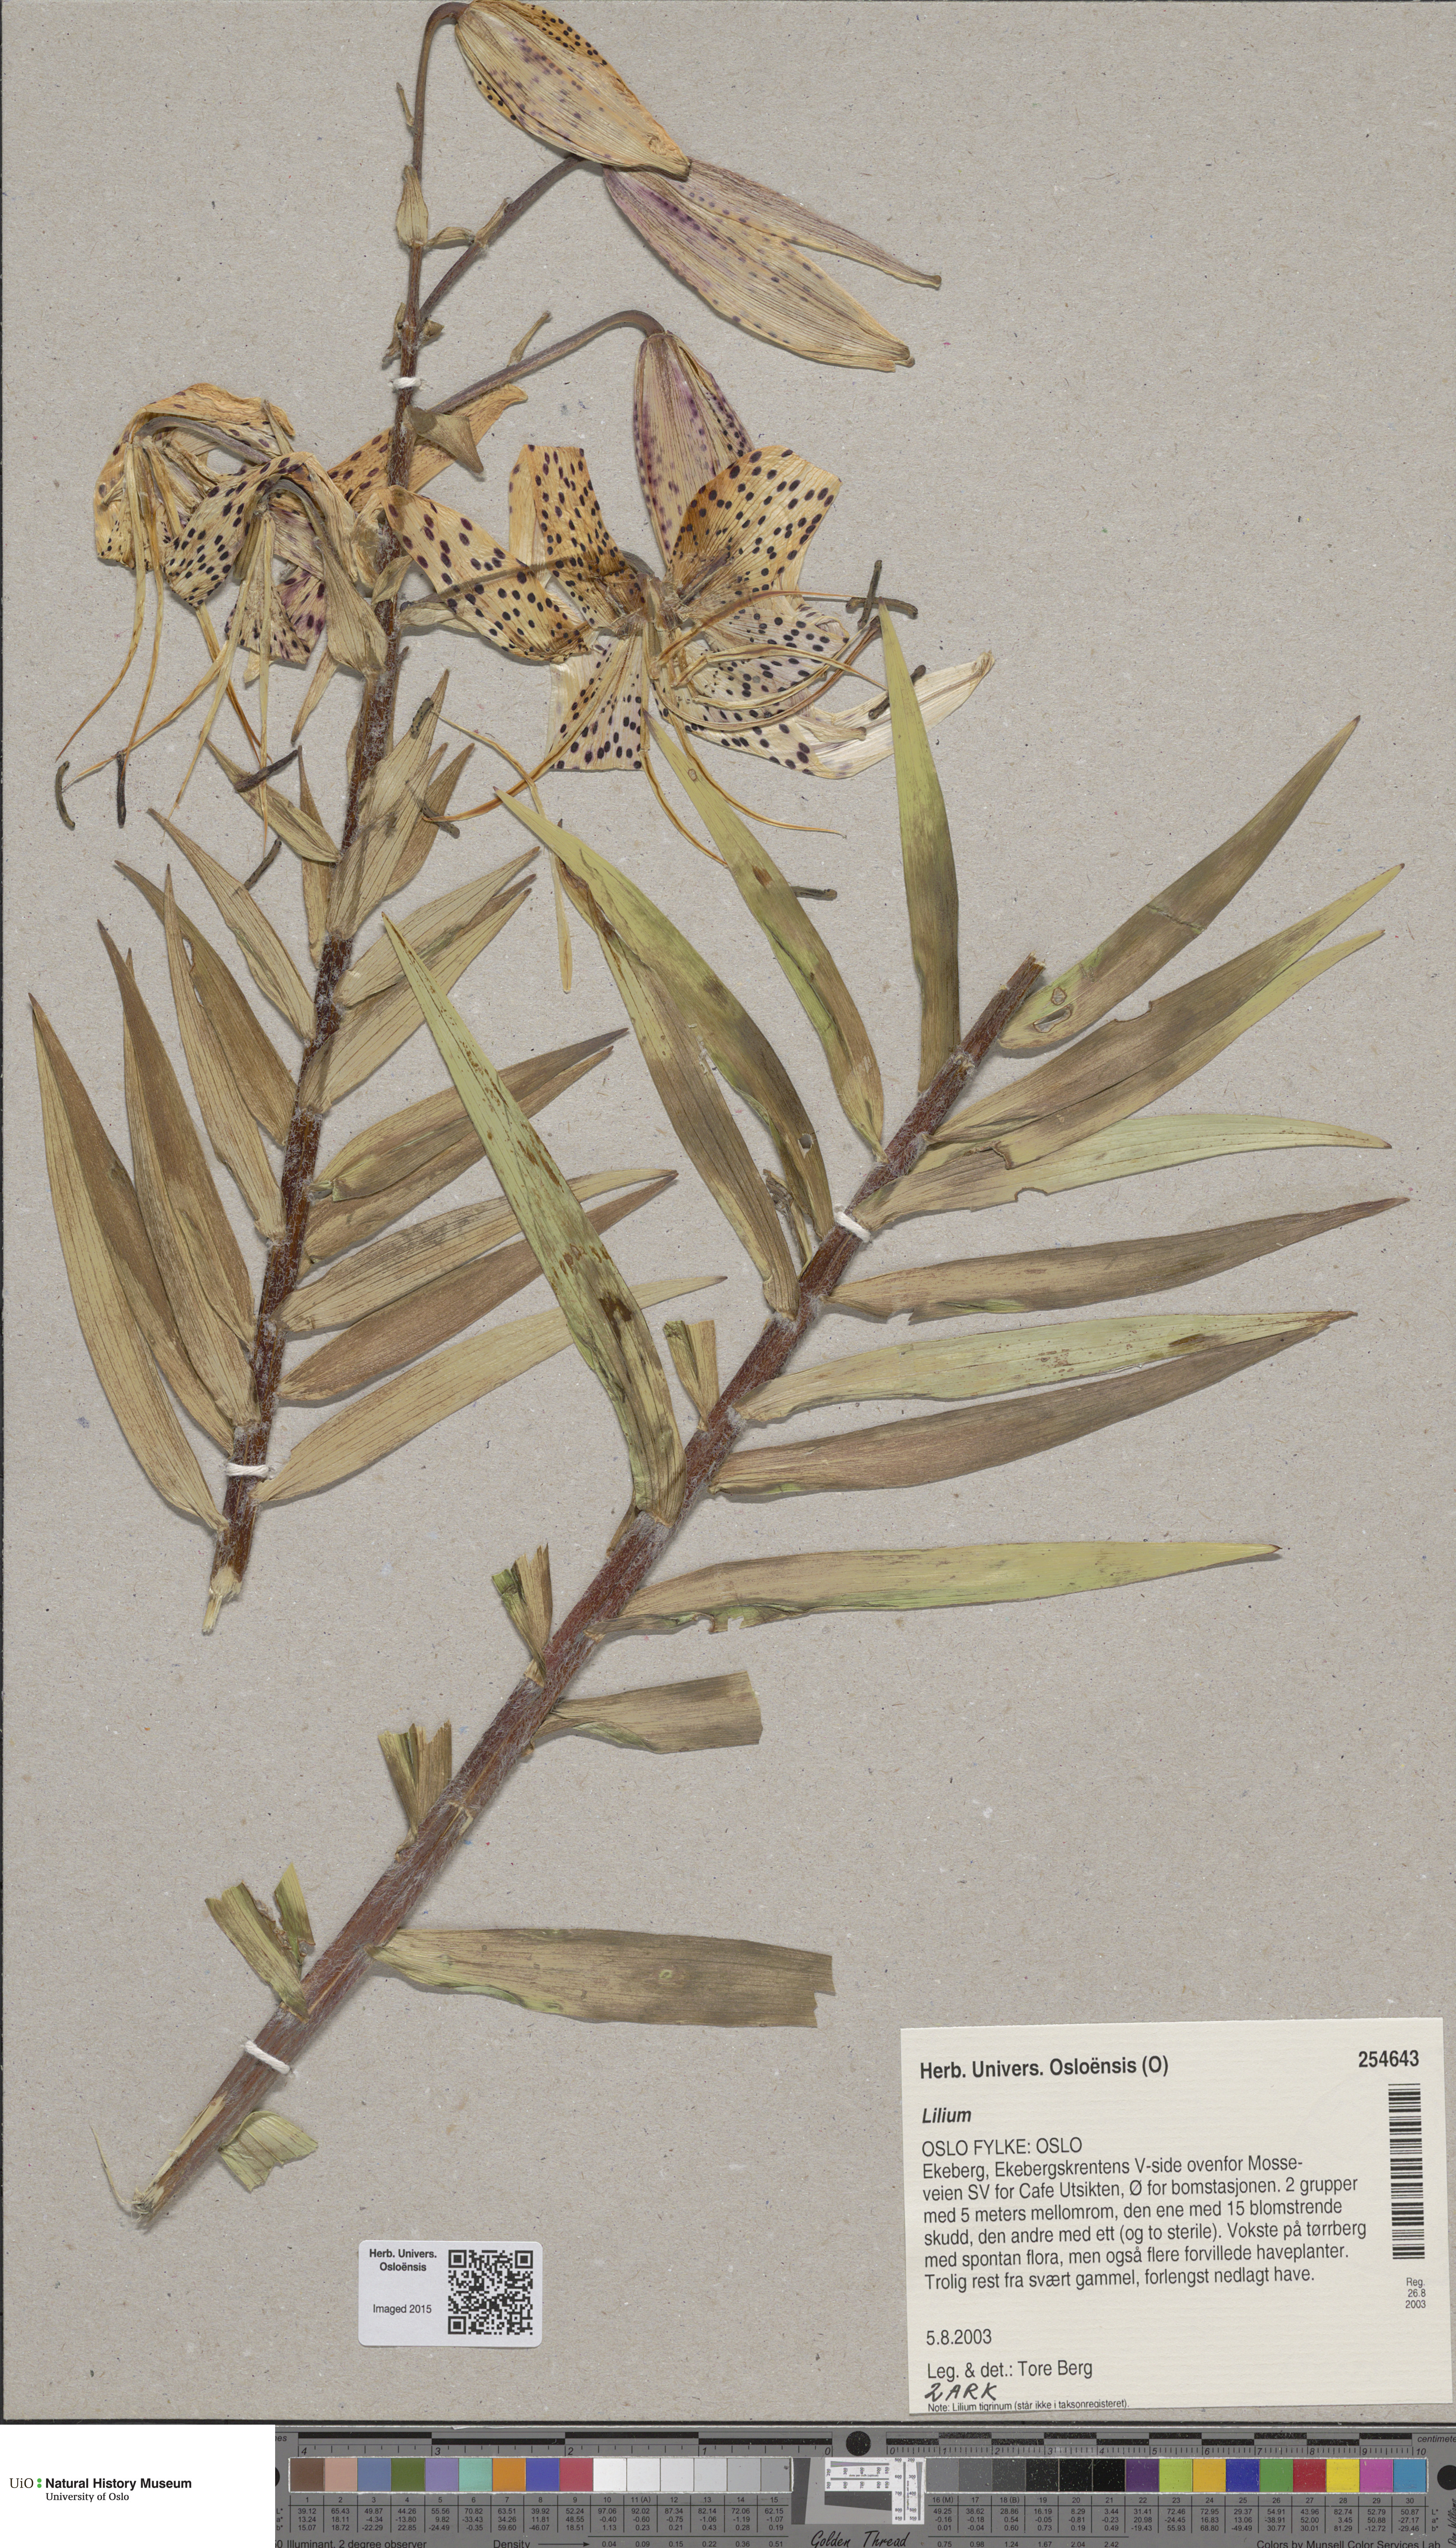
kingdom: Plantae
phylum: Tracheophyta
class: Liliopsida
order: Liliales
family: Liliaceae
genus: Lilium
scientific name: Lilium lancifolium
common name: Tiger lily
